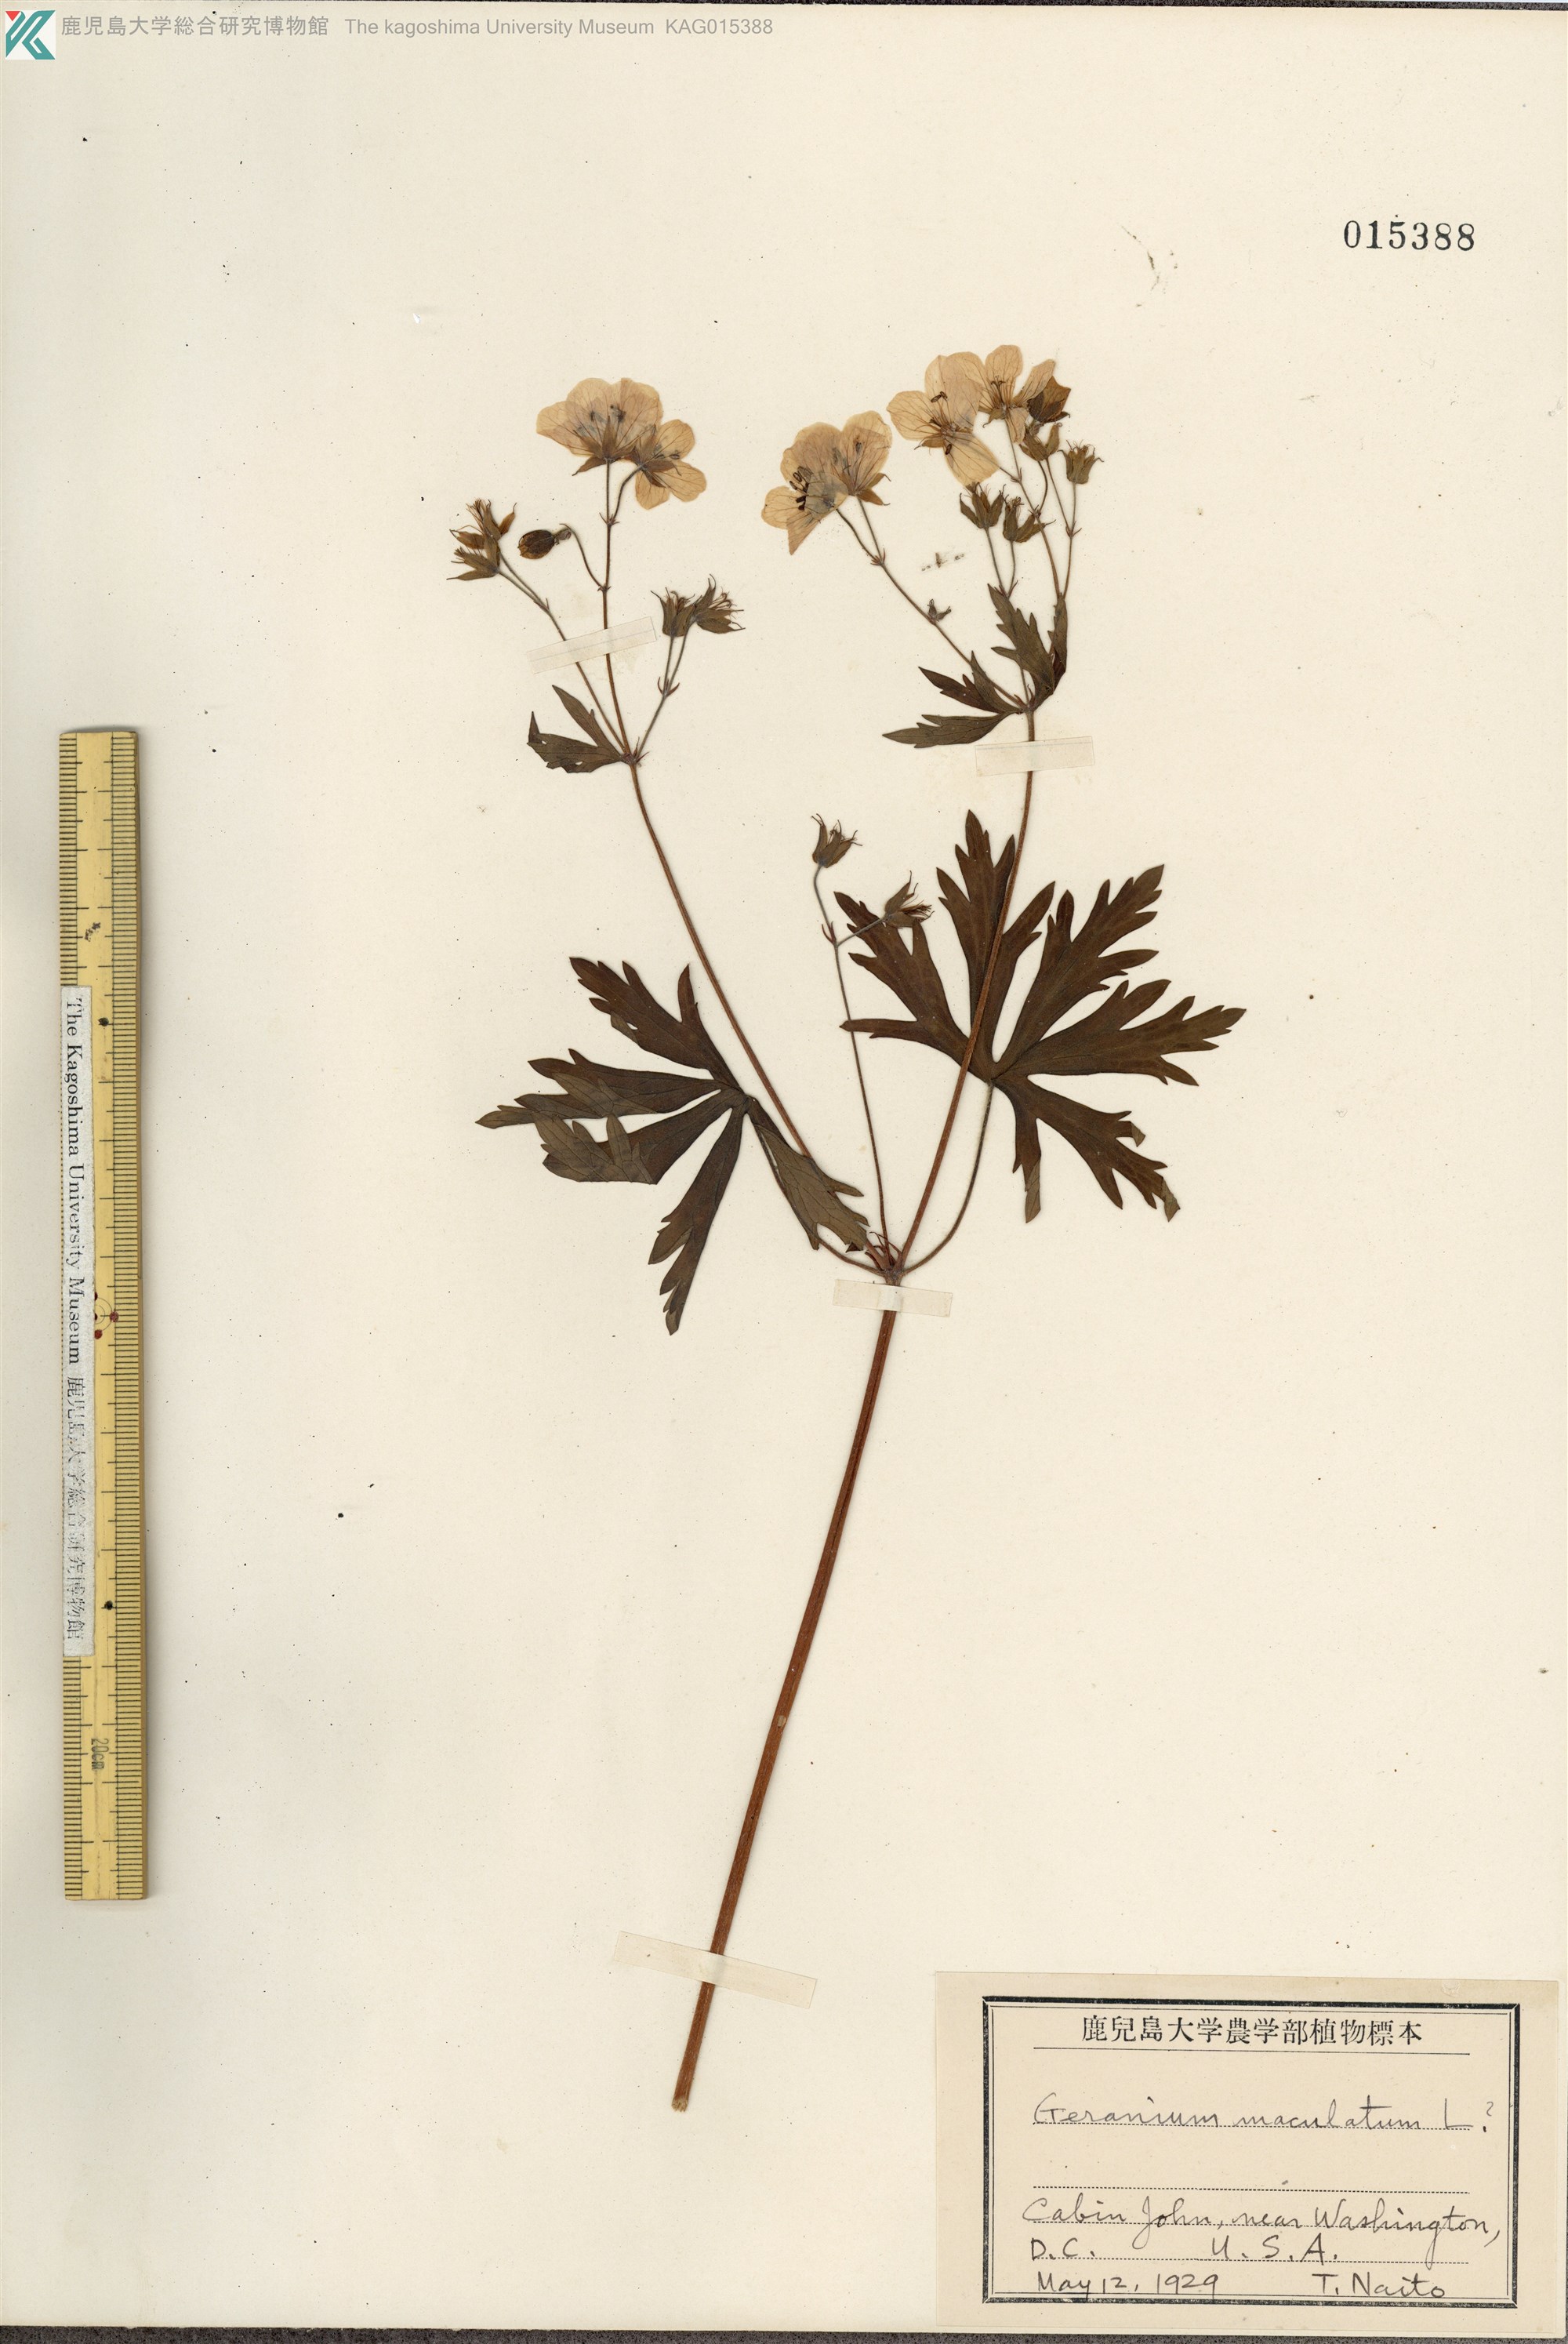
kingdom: Plantae
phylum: Tracheophyta
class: Magnoliopsida
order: Geraniales
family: Geraniaceae
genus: Geranium
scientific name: Geranium maculatum
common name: Spotted geranium
